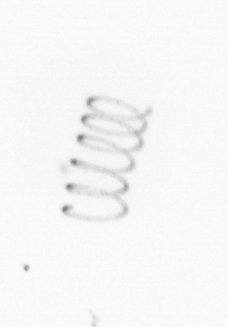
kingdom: Chromista
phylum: Ochrophyta
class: Bacillariophyceae
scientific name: Bacillariophyceae
